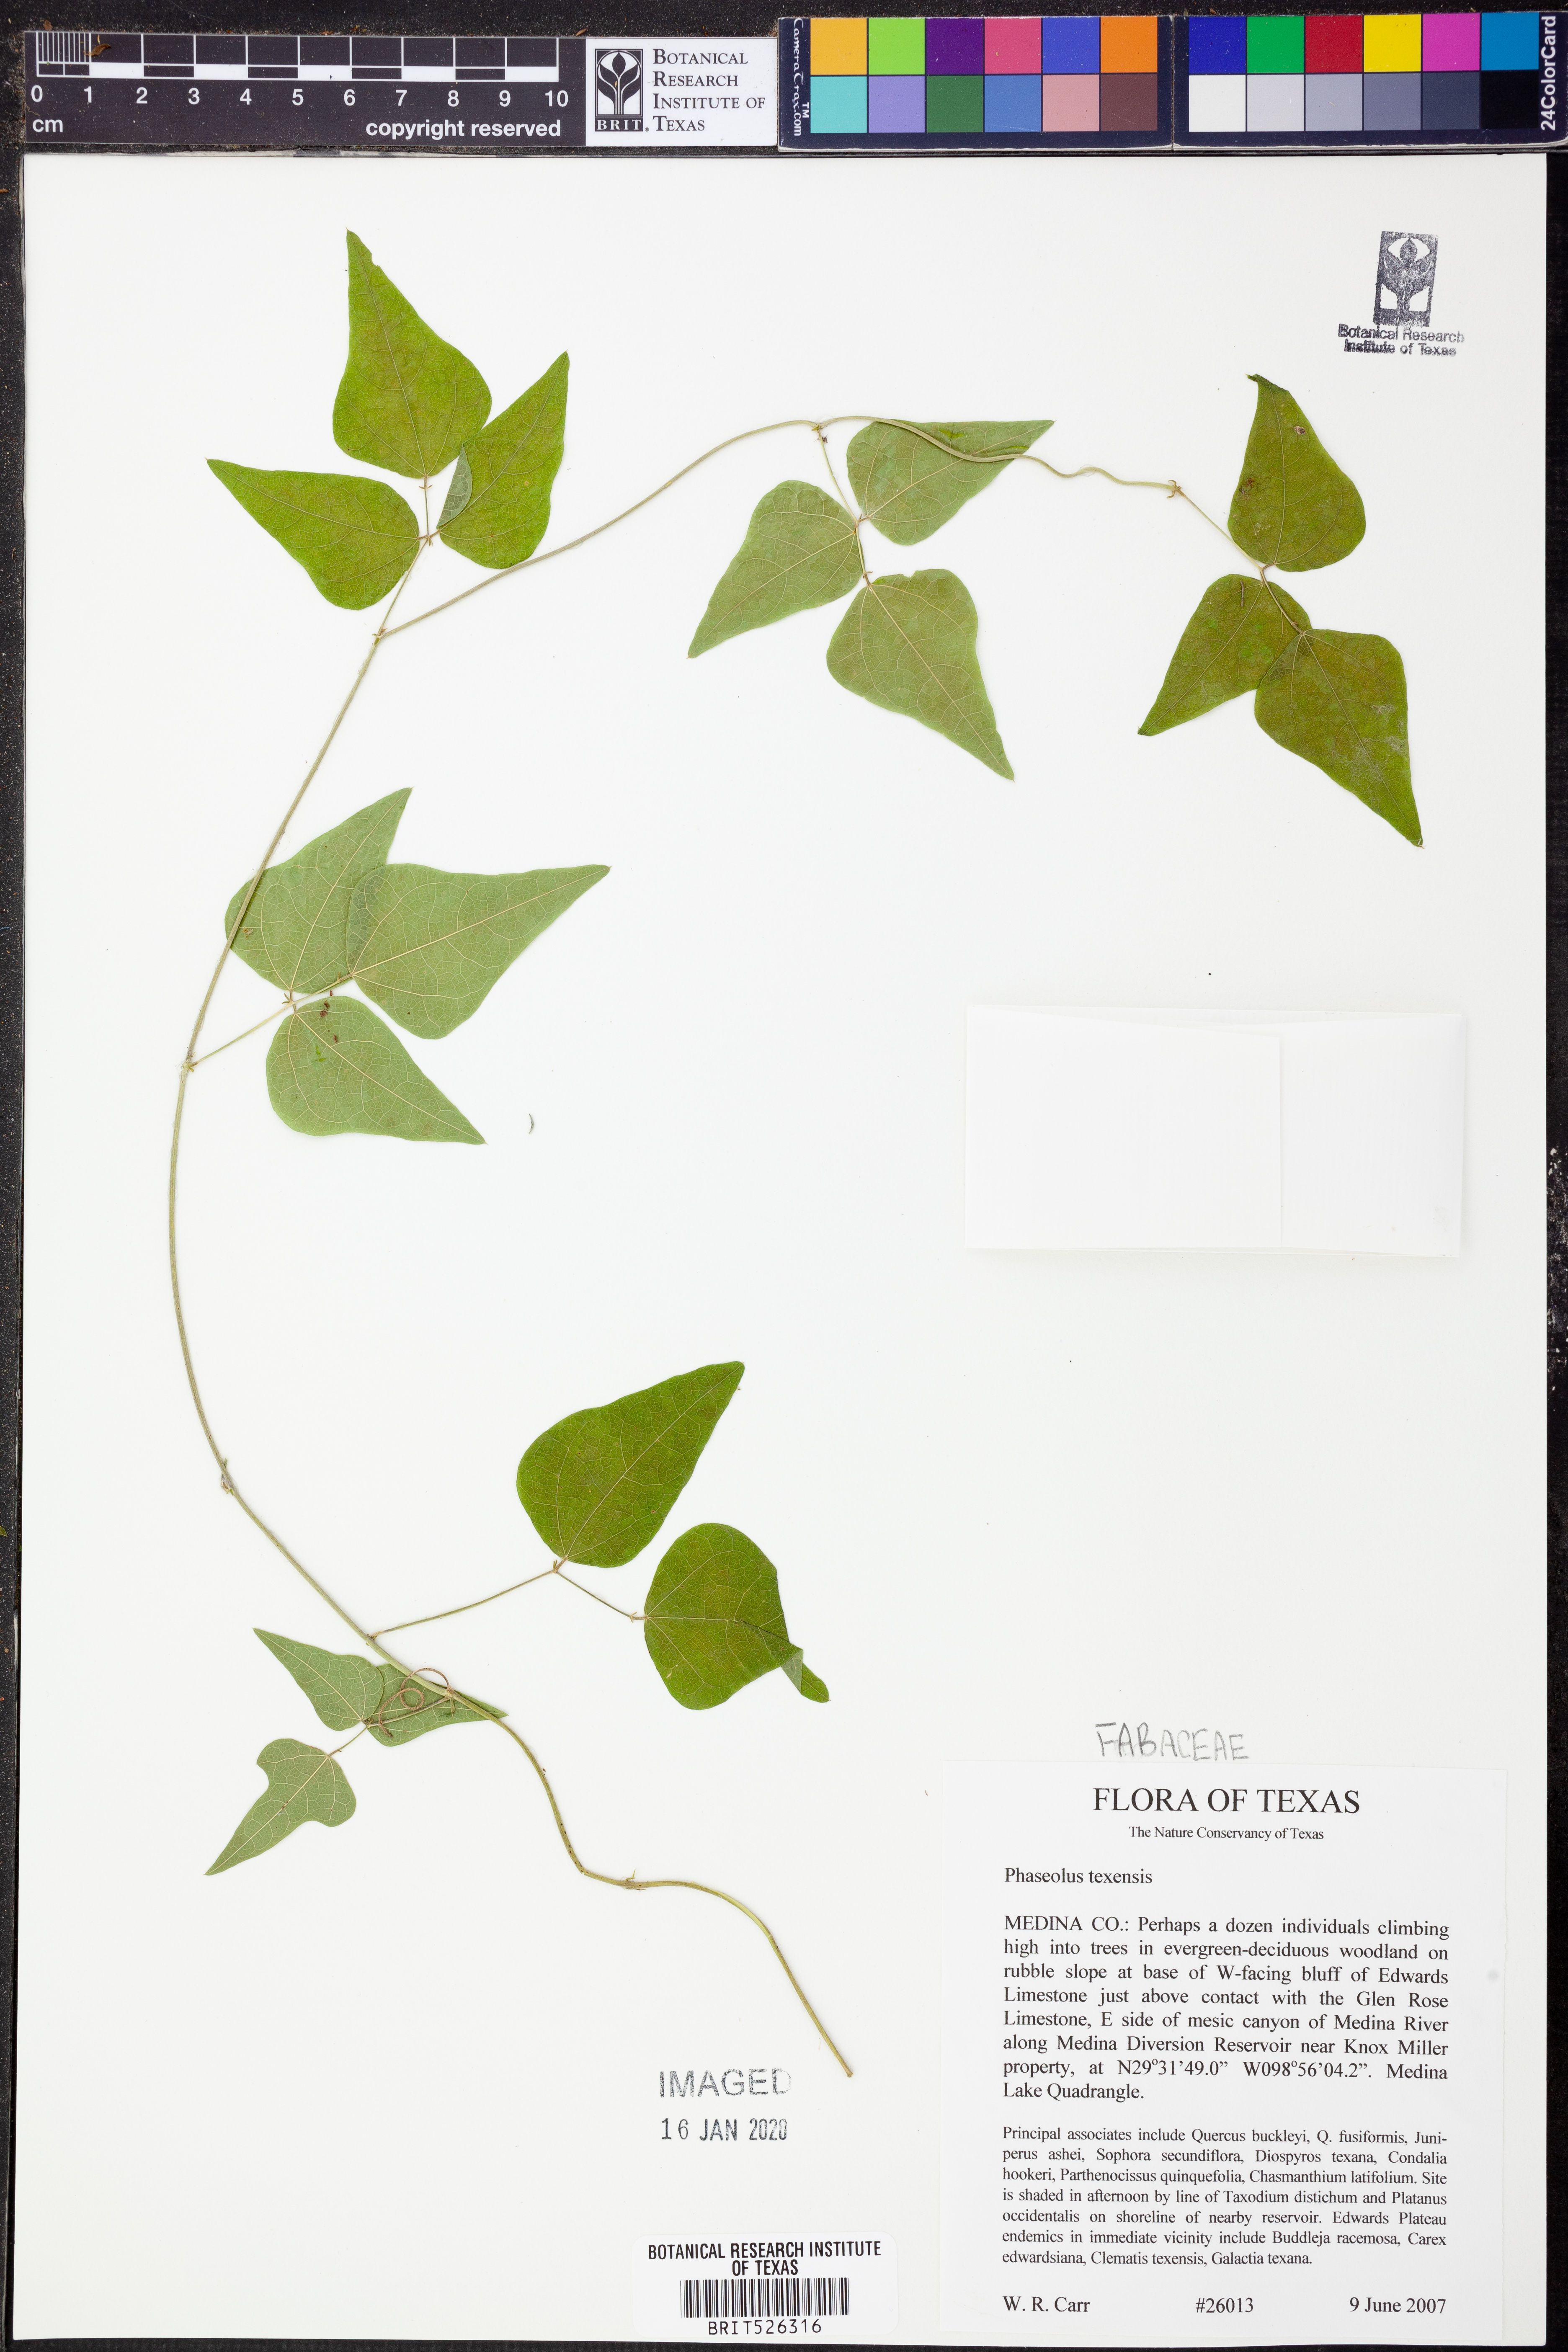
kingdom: Plantae
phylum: Tracheophyta
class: Magnoliopsida
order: Fabales
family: Fabaceae
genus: Phaseolus
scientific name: Phaseolus texensis
